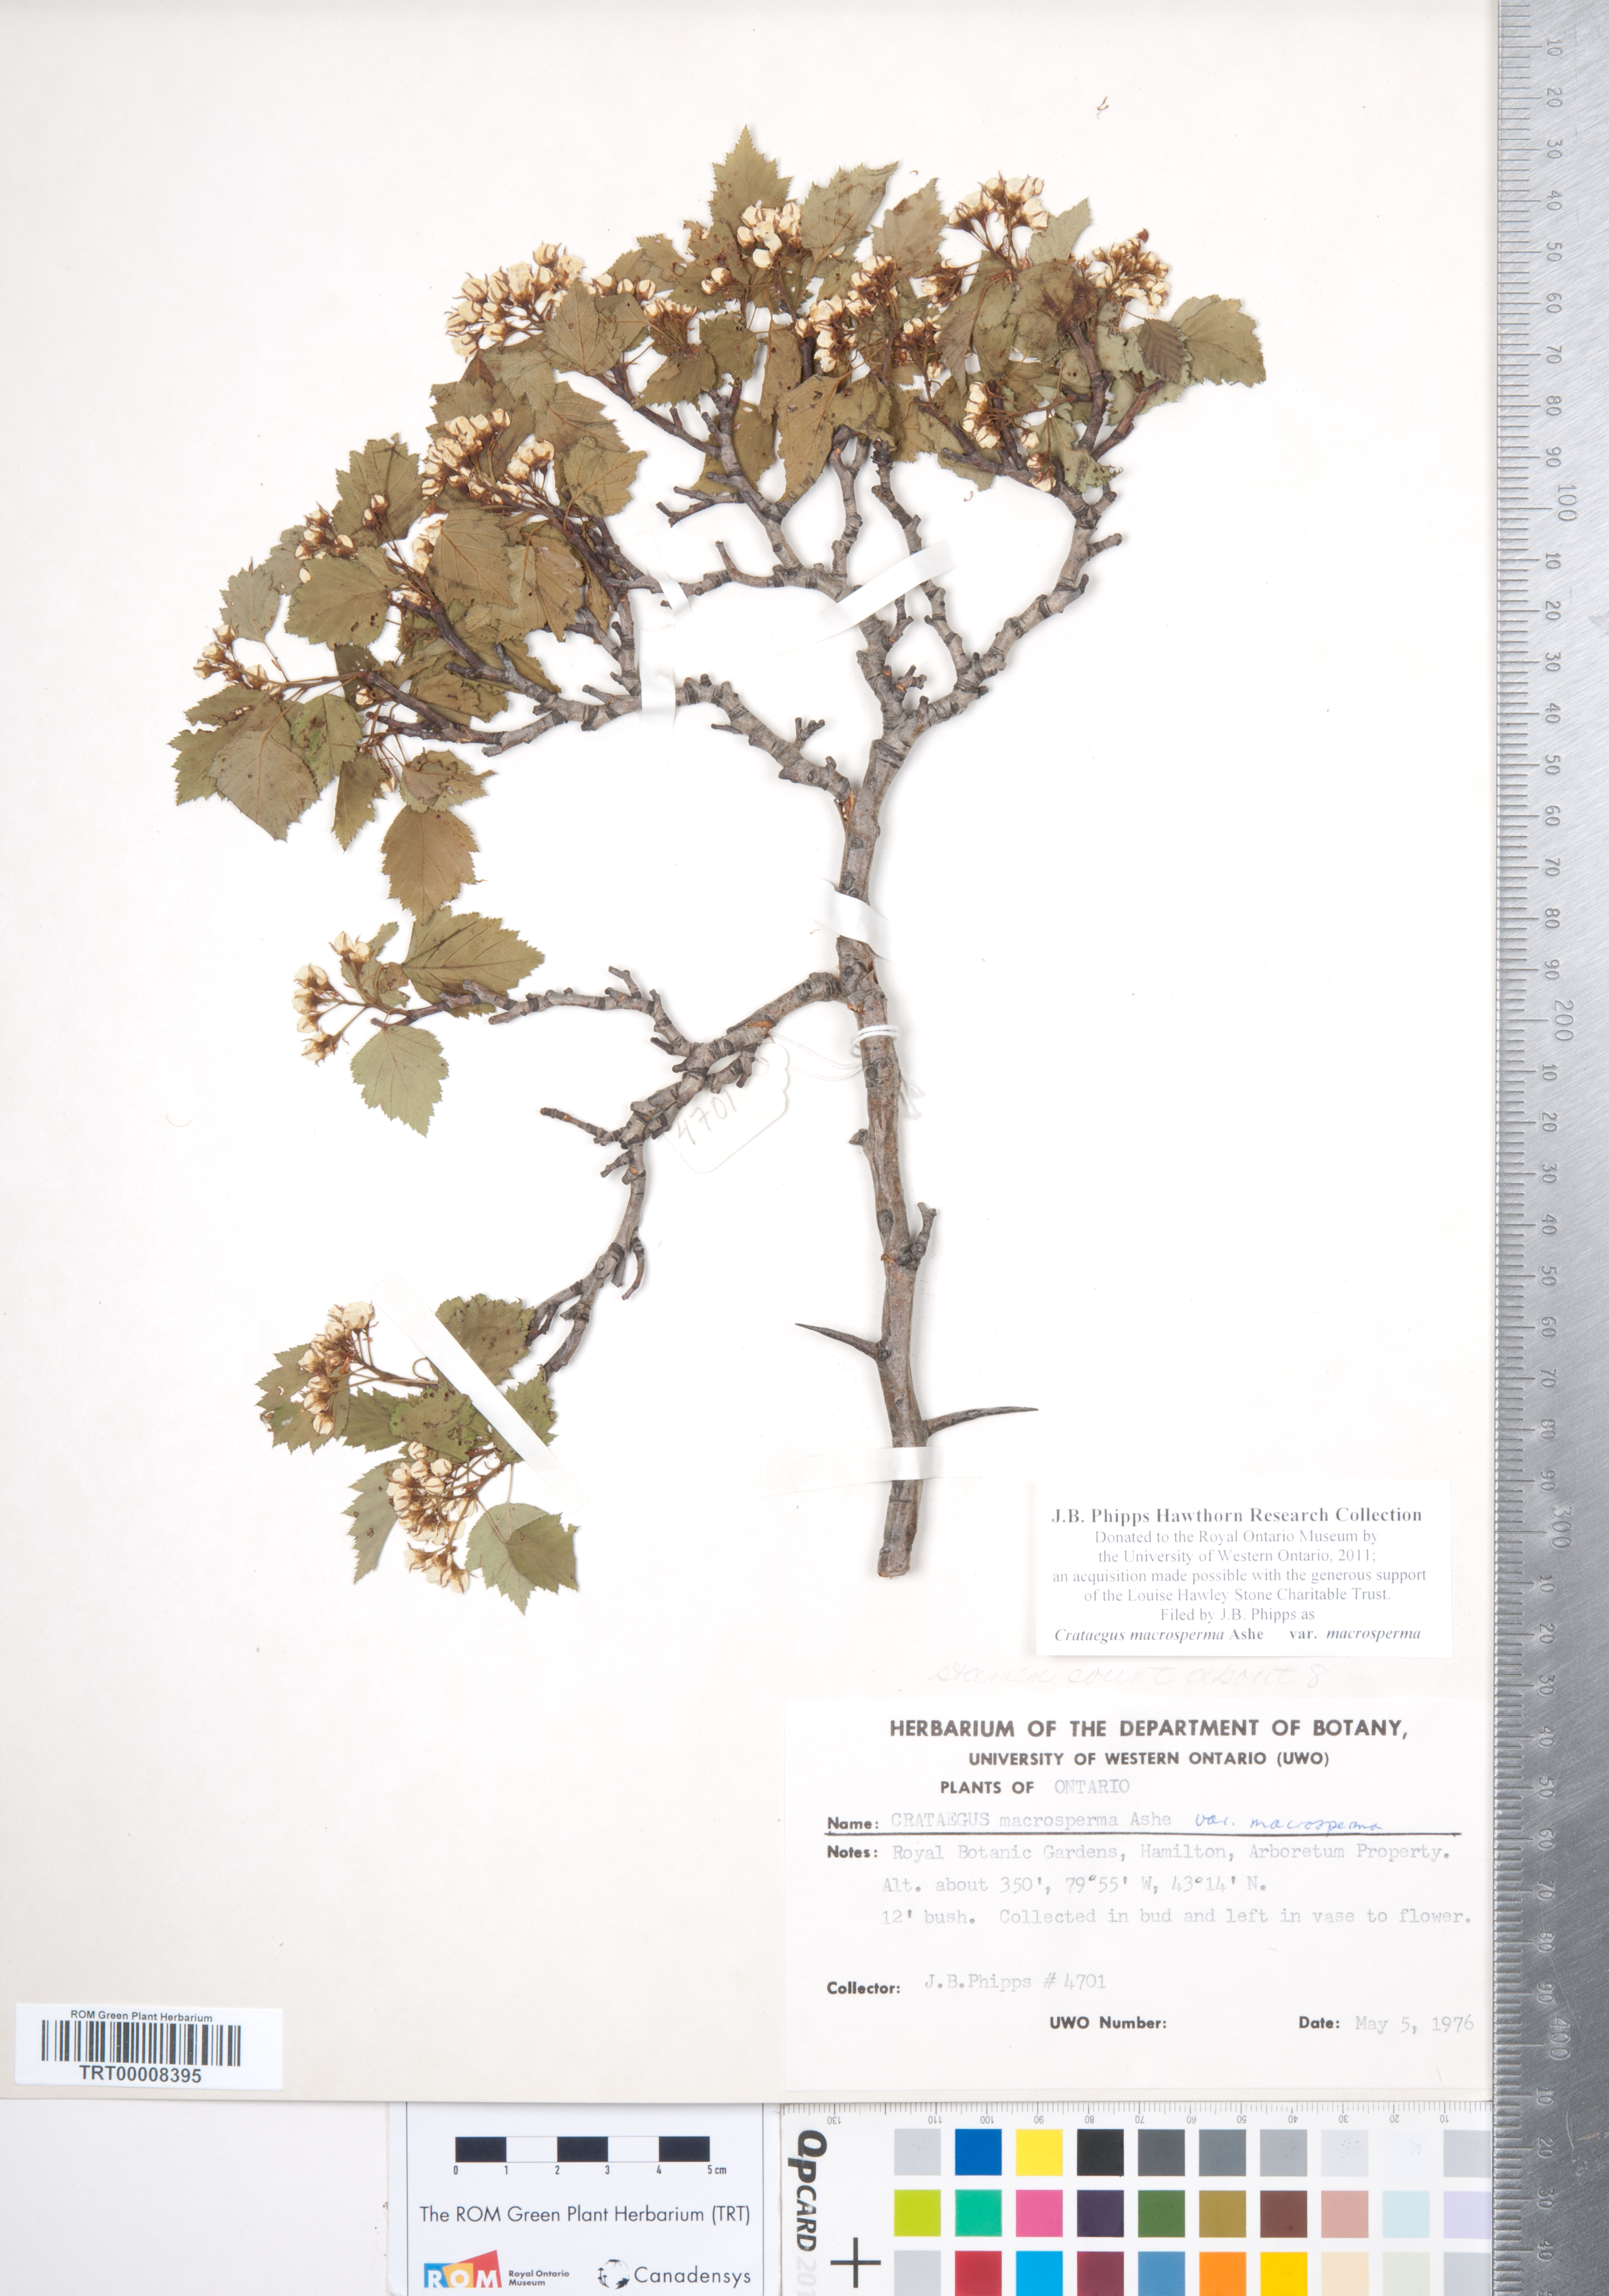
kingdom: Plantae
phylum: Tracheophyta
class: Magnoliopsida
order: Rosales
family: Rosaceae
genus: Crataegus
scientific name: Crataegus macrosperma
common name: Variable hawthorn
